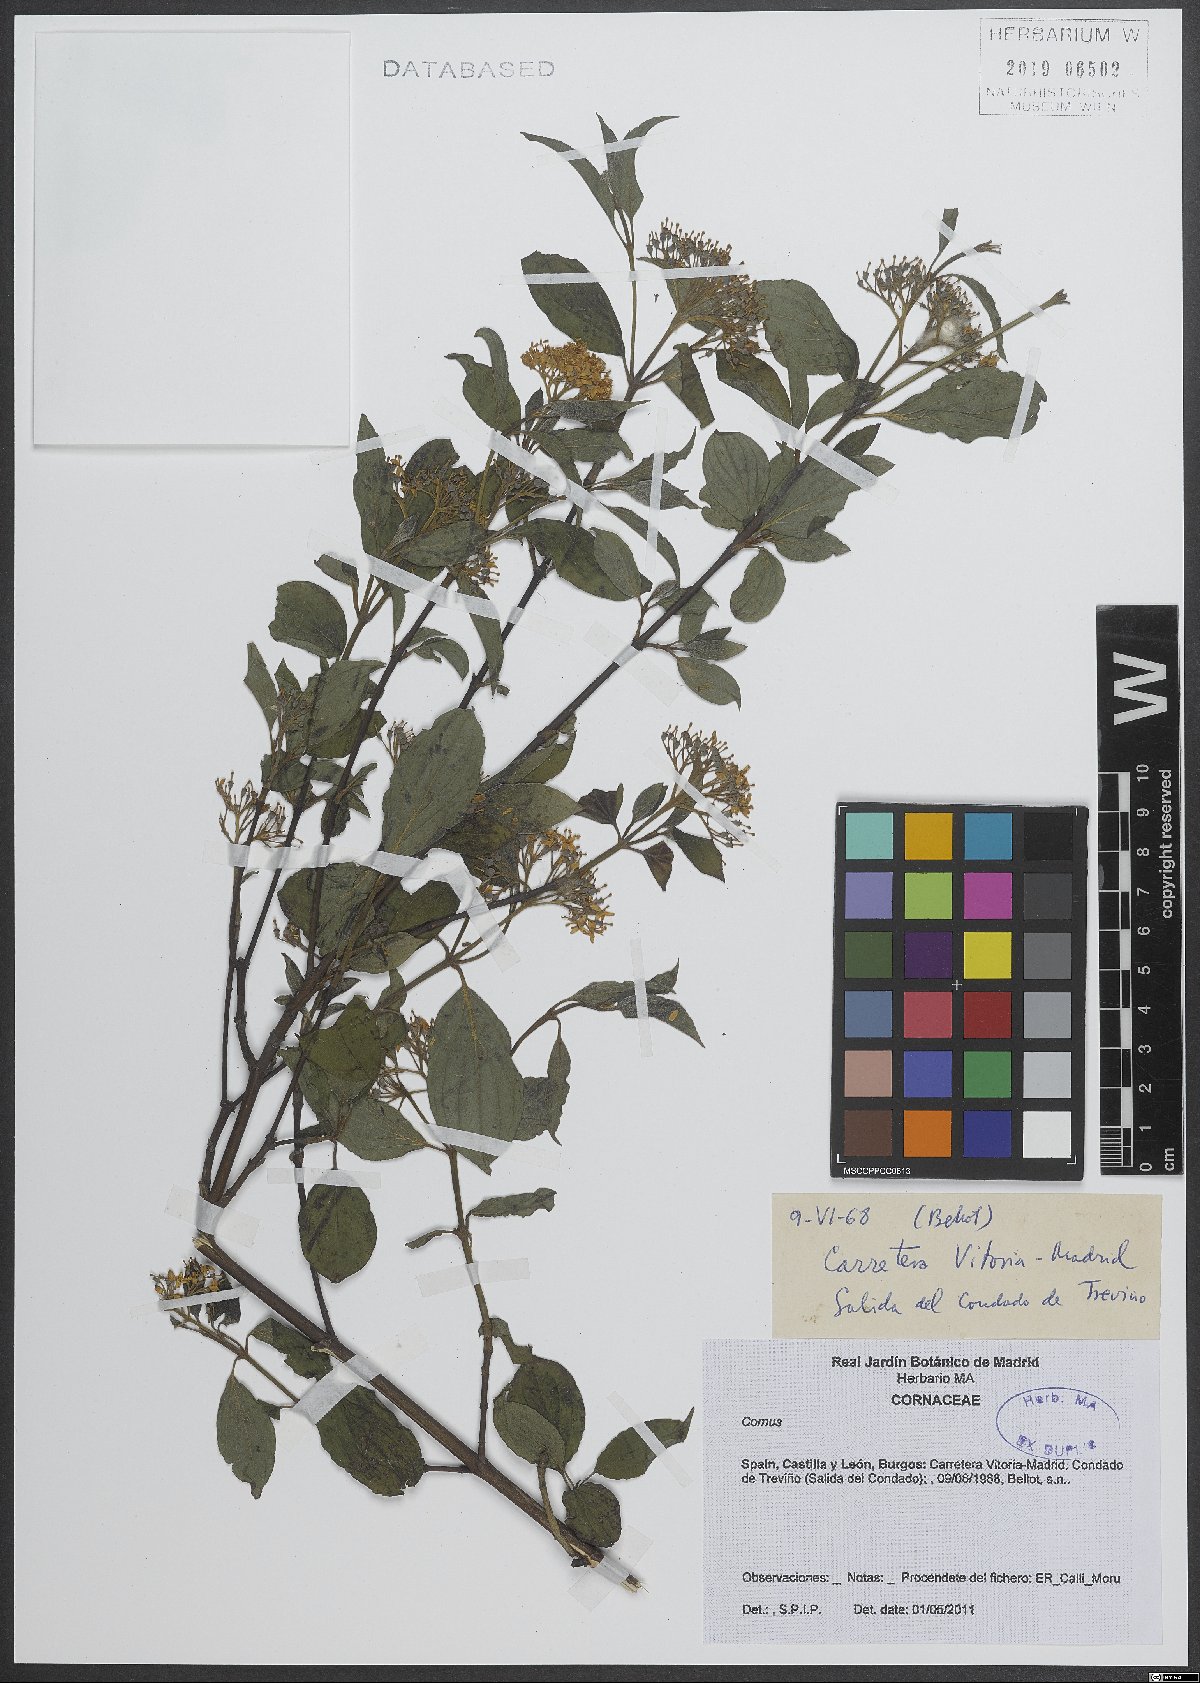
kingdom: Plantae
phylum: Tracheophyta
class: Magnoliopsida
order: Cornales
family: Cornaceae
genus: Cornus
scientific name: Cornus
